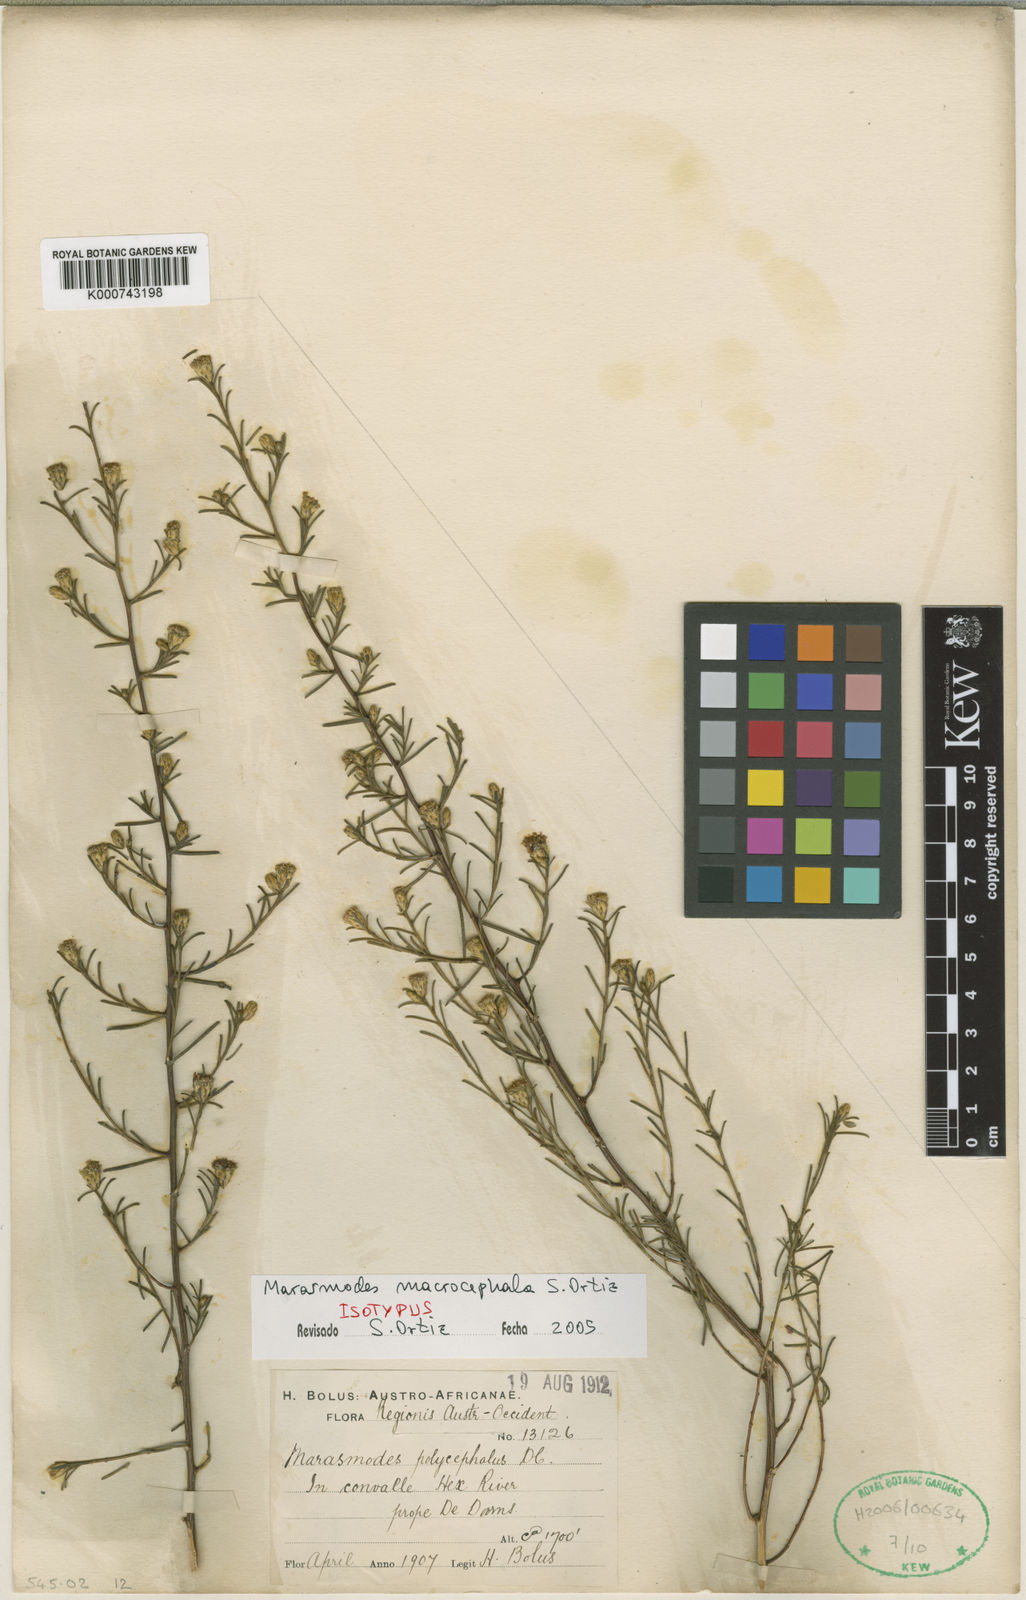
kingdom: Plantae
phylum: Tracheophyta
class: Magnoliopsida
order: Asterales
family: Asteraceae
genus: Marasmodes
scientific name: Marasmodes macrocephala
